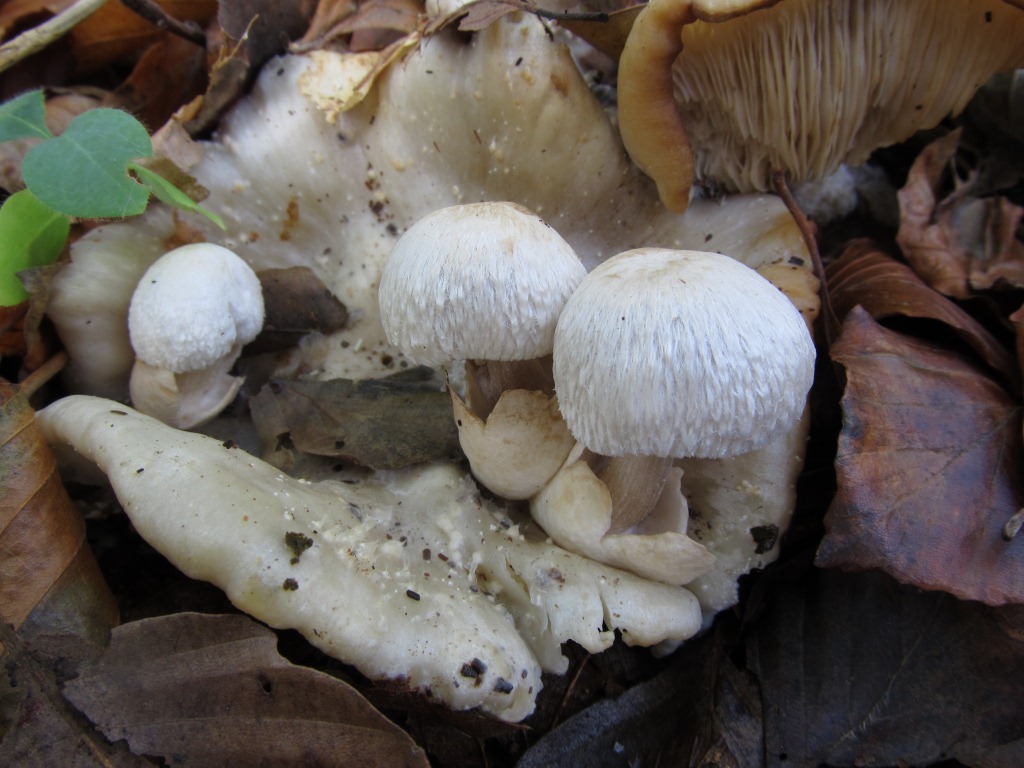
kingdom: Fungi
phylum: Basidiomycota
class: Agaricomycetes
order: Agaricales
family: Pluteaceae
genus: Volvariella
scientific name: Volvariella surrecta
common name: snyltende posesvamp
